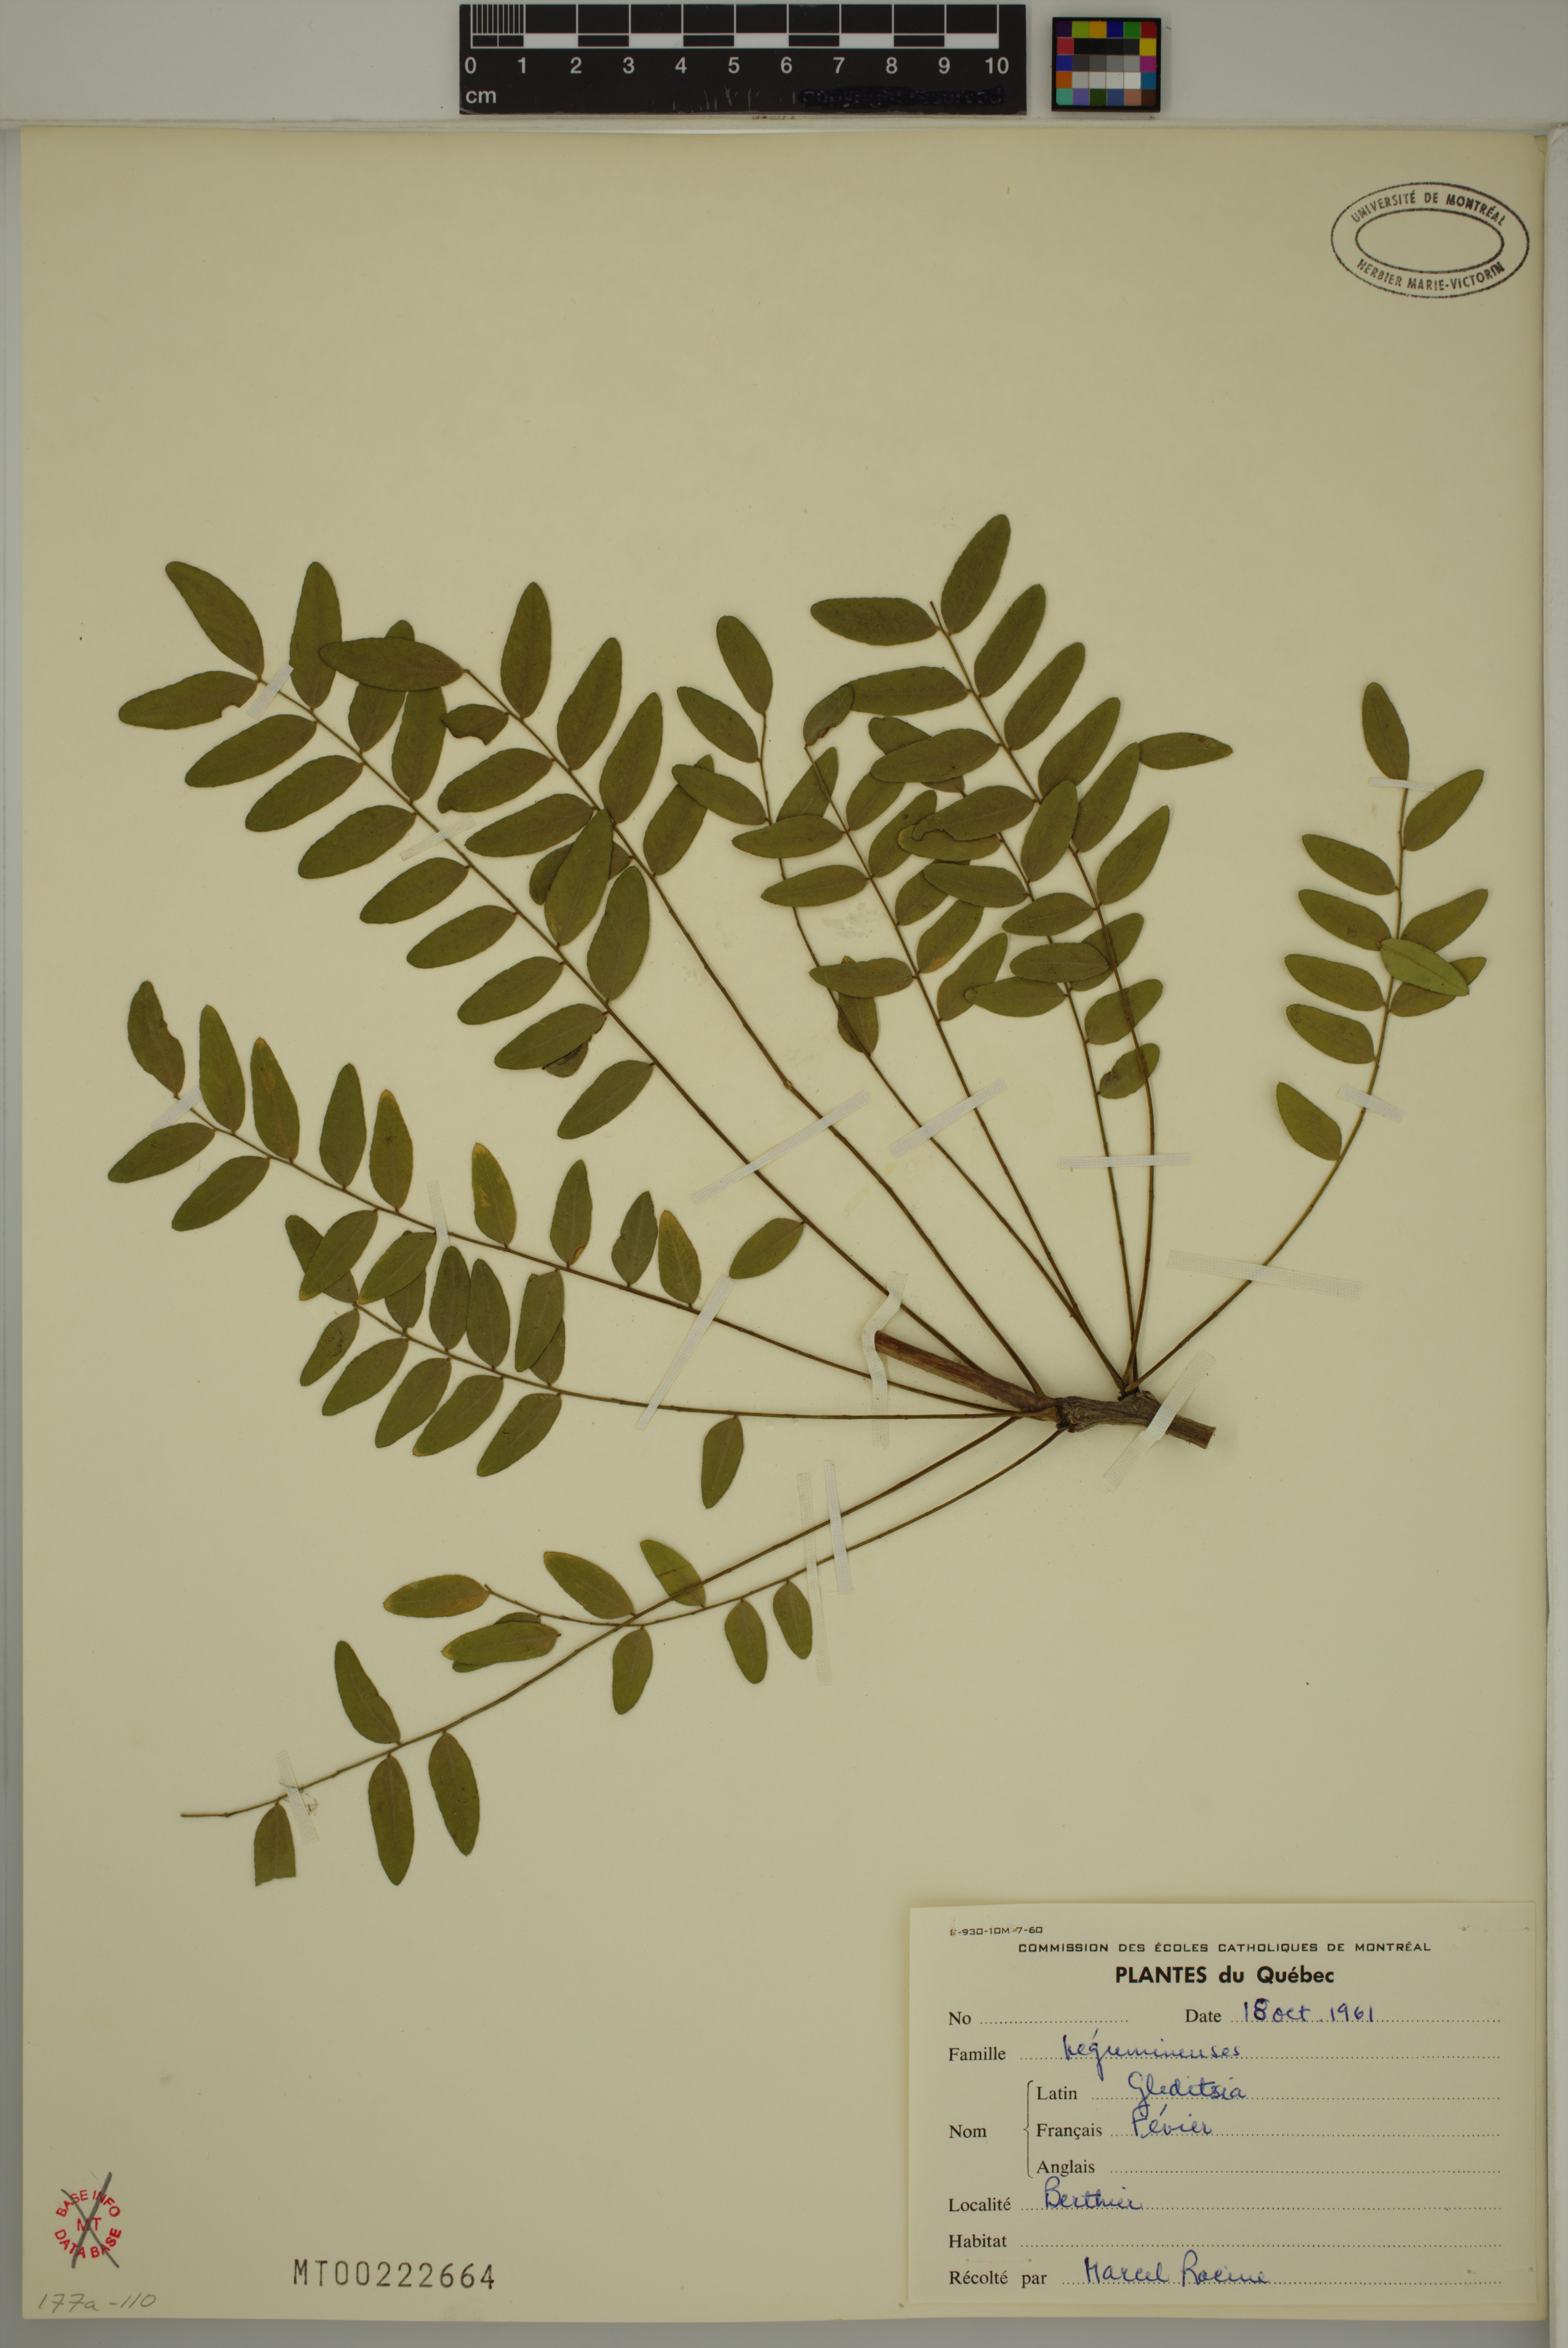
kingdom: Plantae
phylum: Tracheophyta
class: Magnoliopsida
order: Fabales
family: Fabaceae
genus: Gleditsia
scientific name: Gleditsia triacanthos
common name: Common honeylocust
